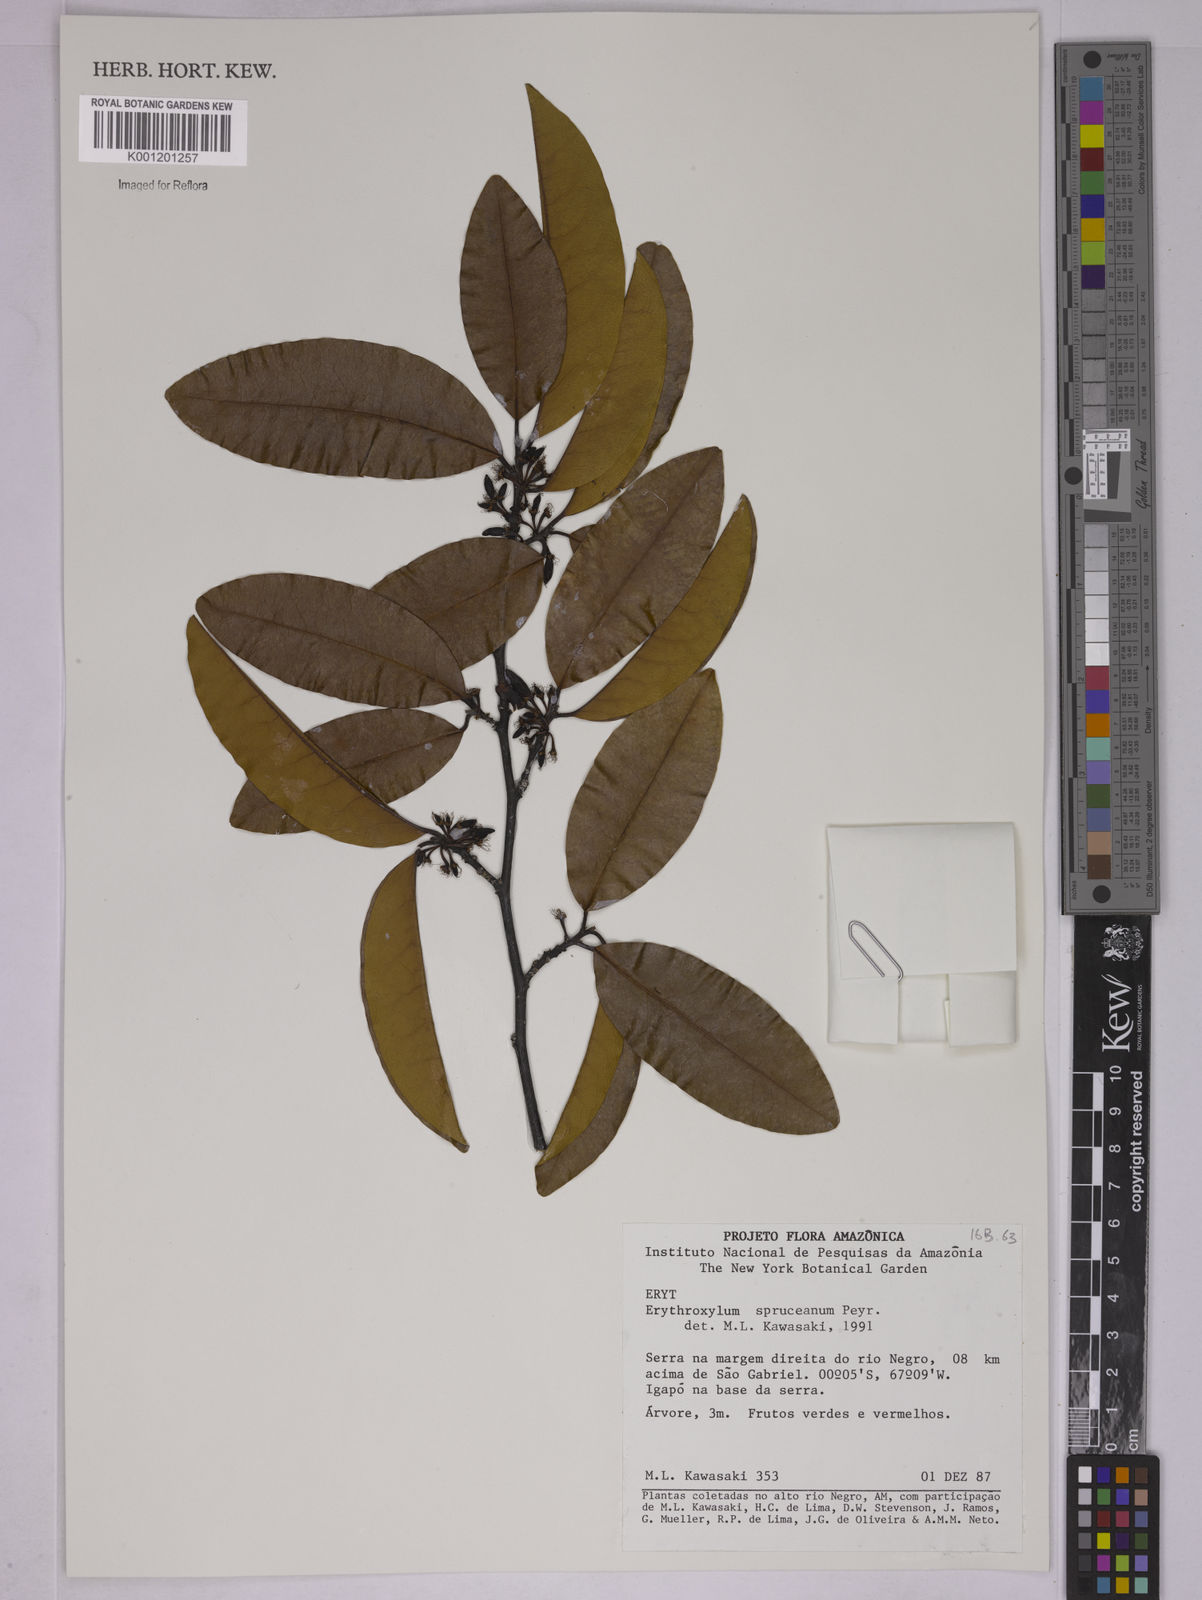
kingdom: Plantae
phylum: Tracheophyta
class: Magnoliopsida
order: Malpighiales
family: Erythroxylaceae
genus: Erythroxylum
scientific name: Erythroxylum spruceanum
